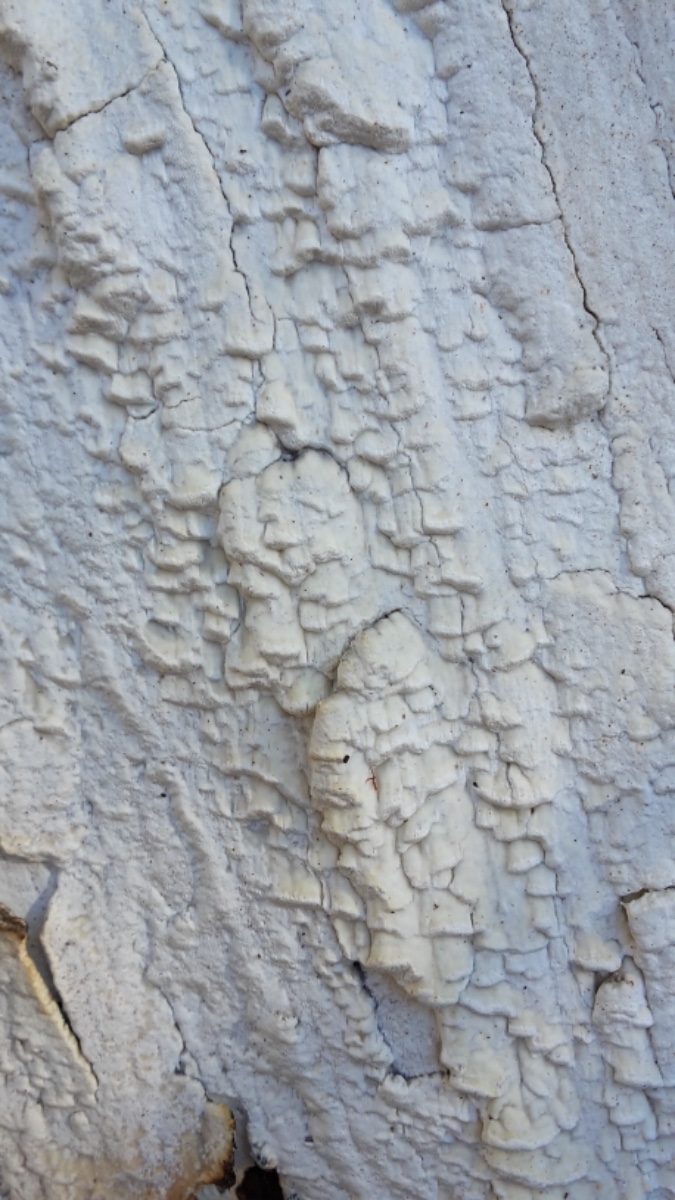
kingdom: Fungi
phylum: Basidiomycota
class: Agaricomycetes
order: Polyporales
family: Fomitopsidaceae
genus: Daedalea
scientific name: Daedalea xantha
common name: gul sejporesvamp
